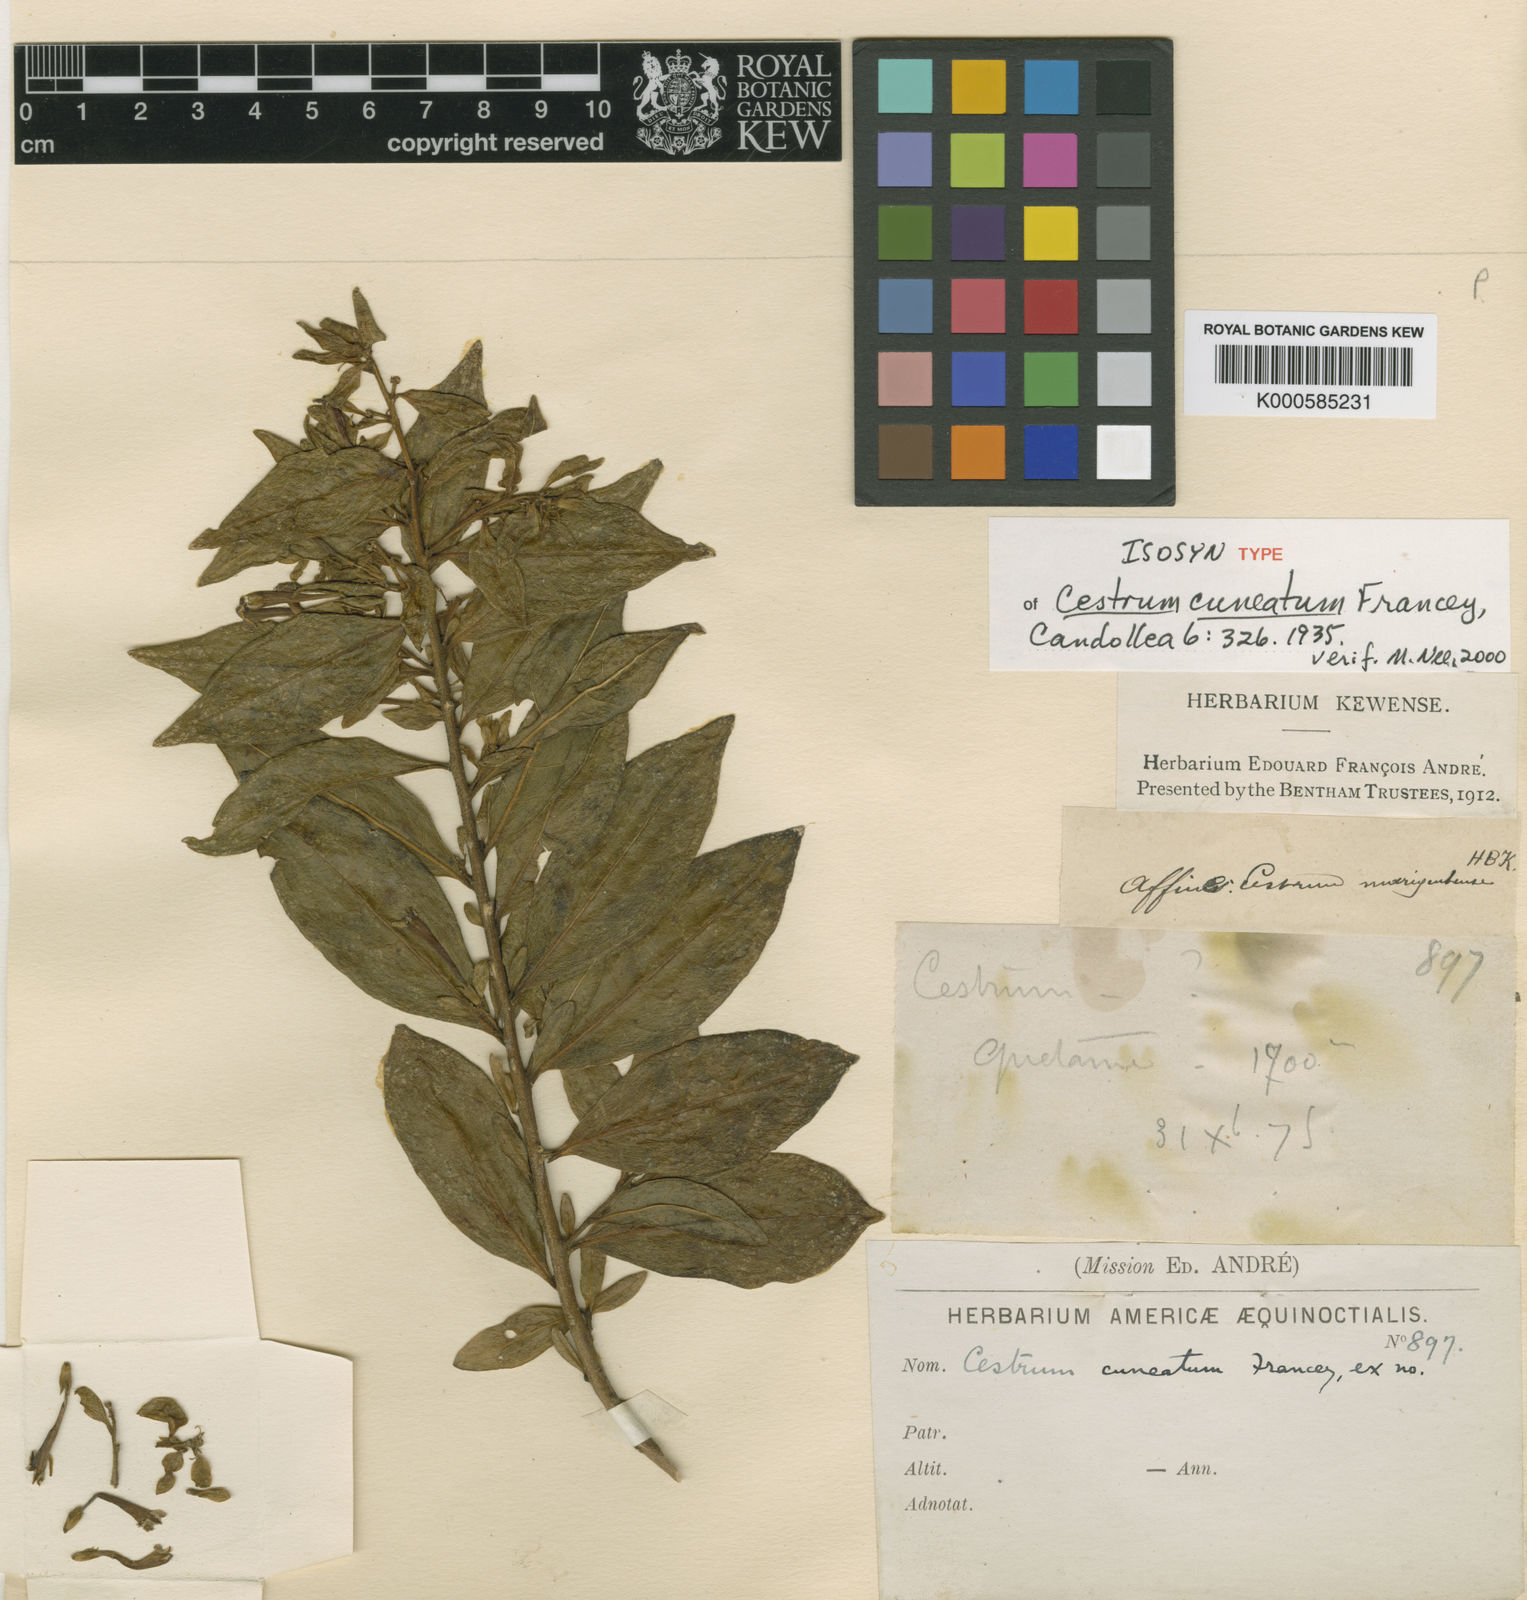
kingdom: Plantae
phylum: Tracheophyta
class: Magnoliopsida
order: Solanales
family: Solanaceae
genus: Cestrum
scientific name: Cestrum buxifolium
